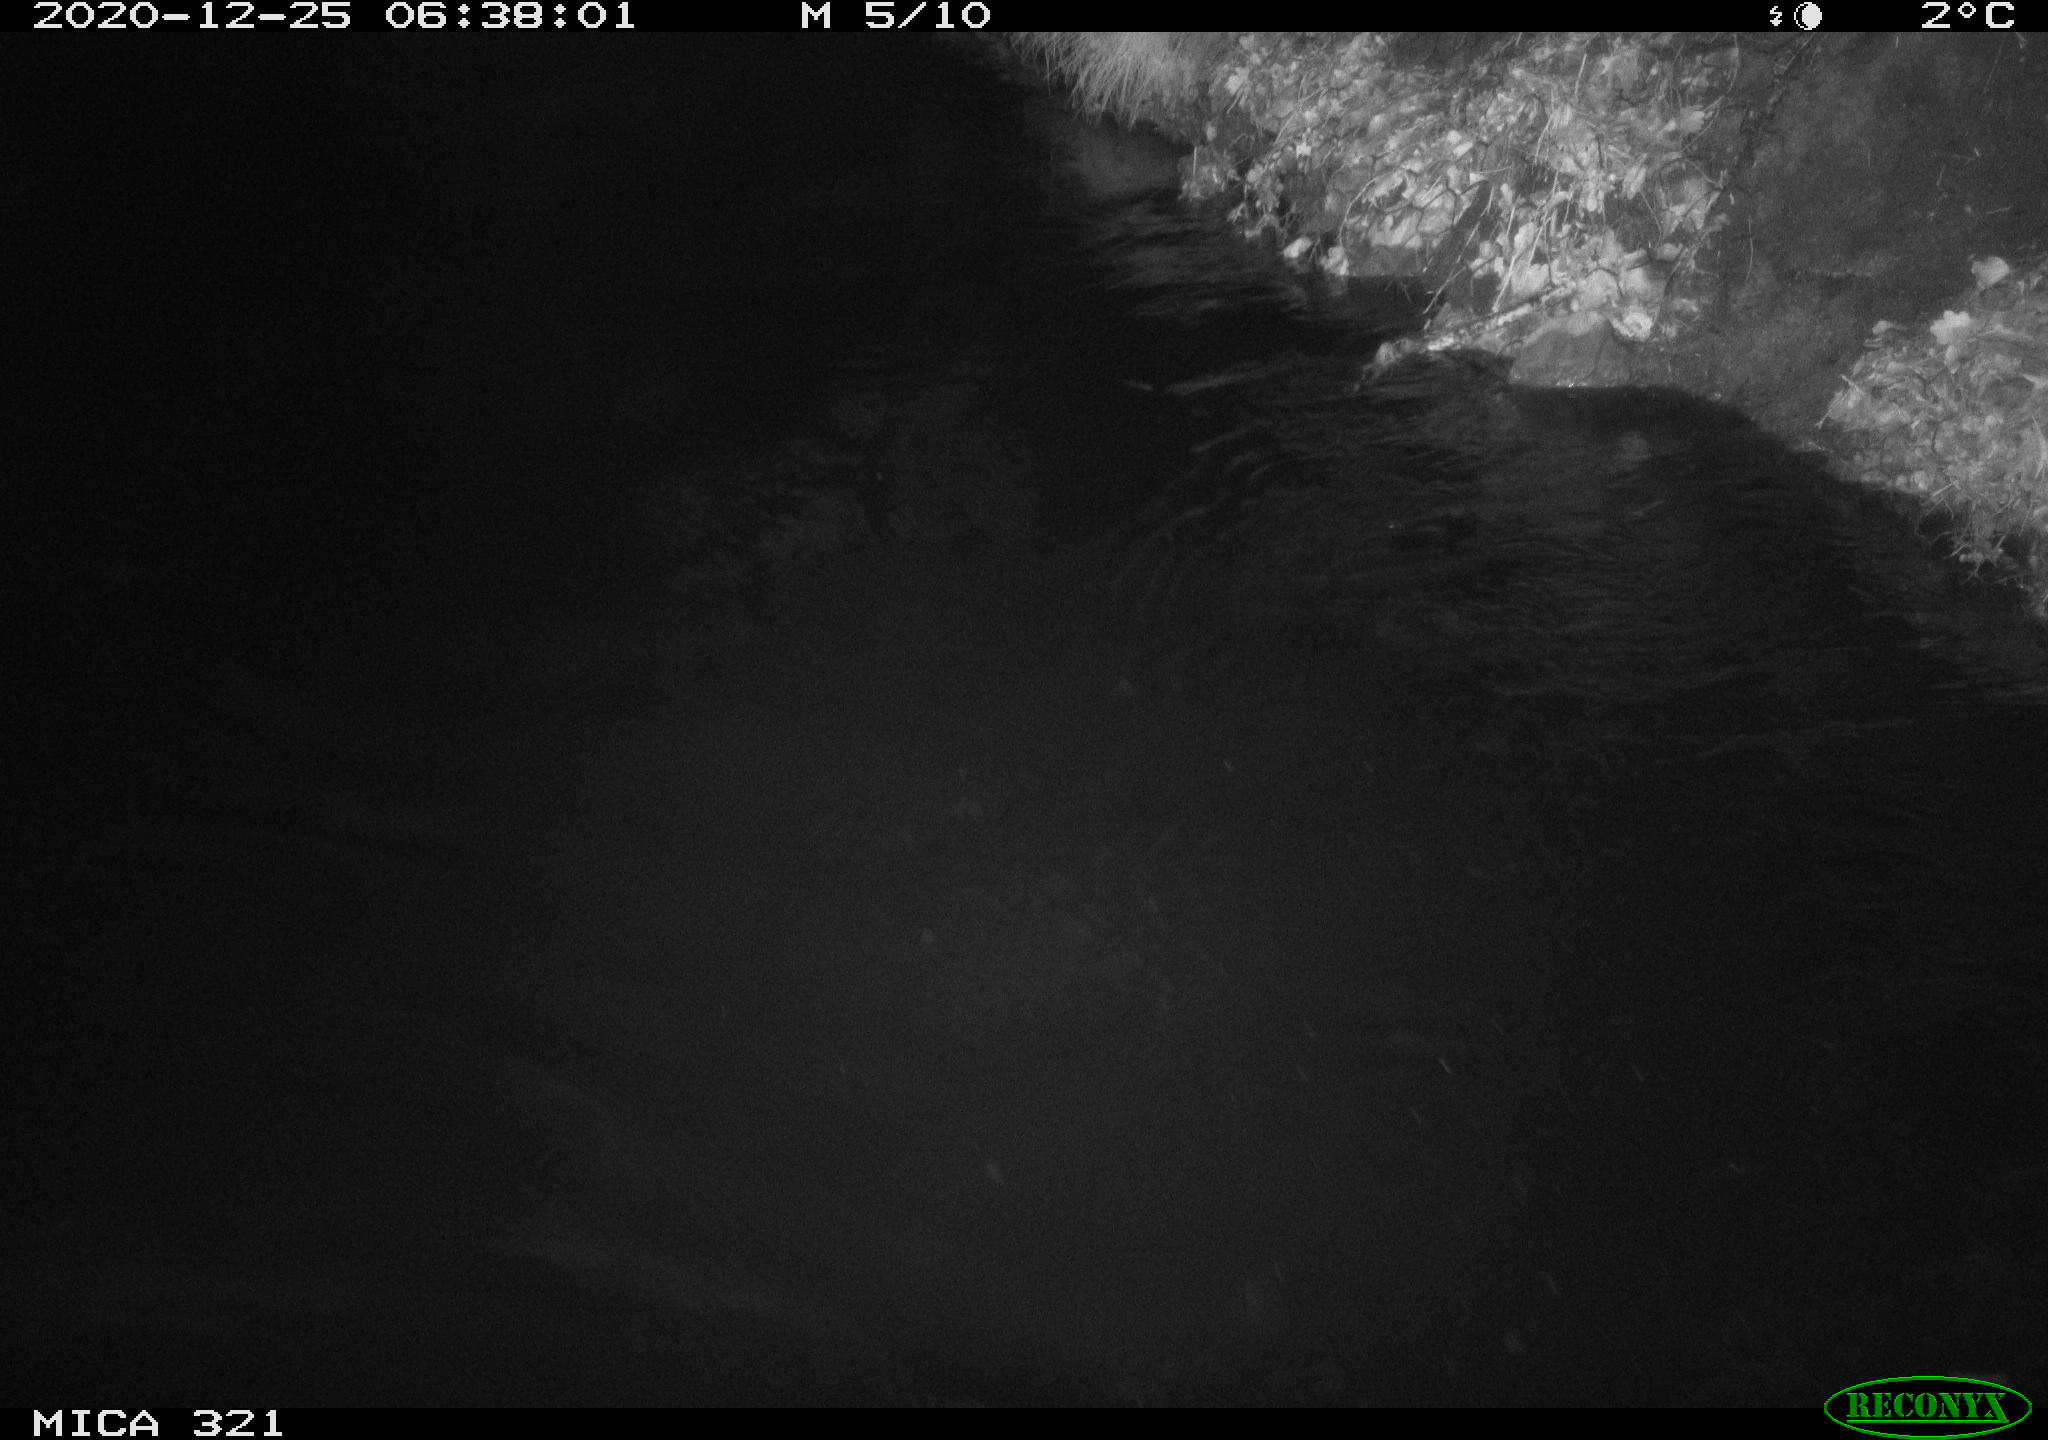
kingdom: Animalia
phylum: Chordata
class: Aves
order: Anseriformes
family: Anatidae
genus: Anas
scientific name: Anas platyrhynchos
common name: Mallard
